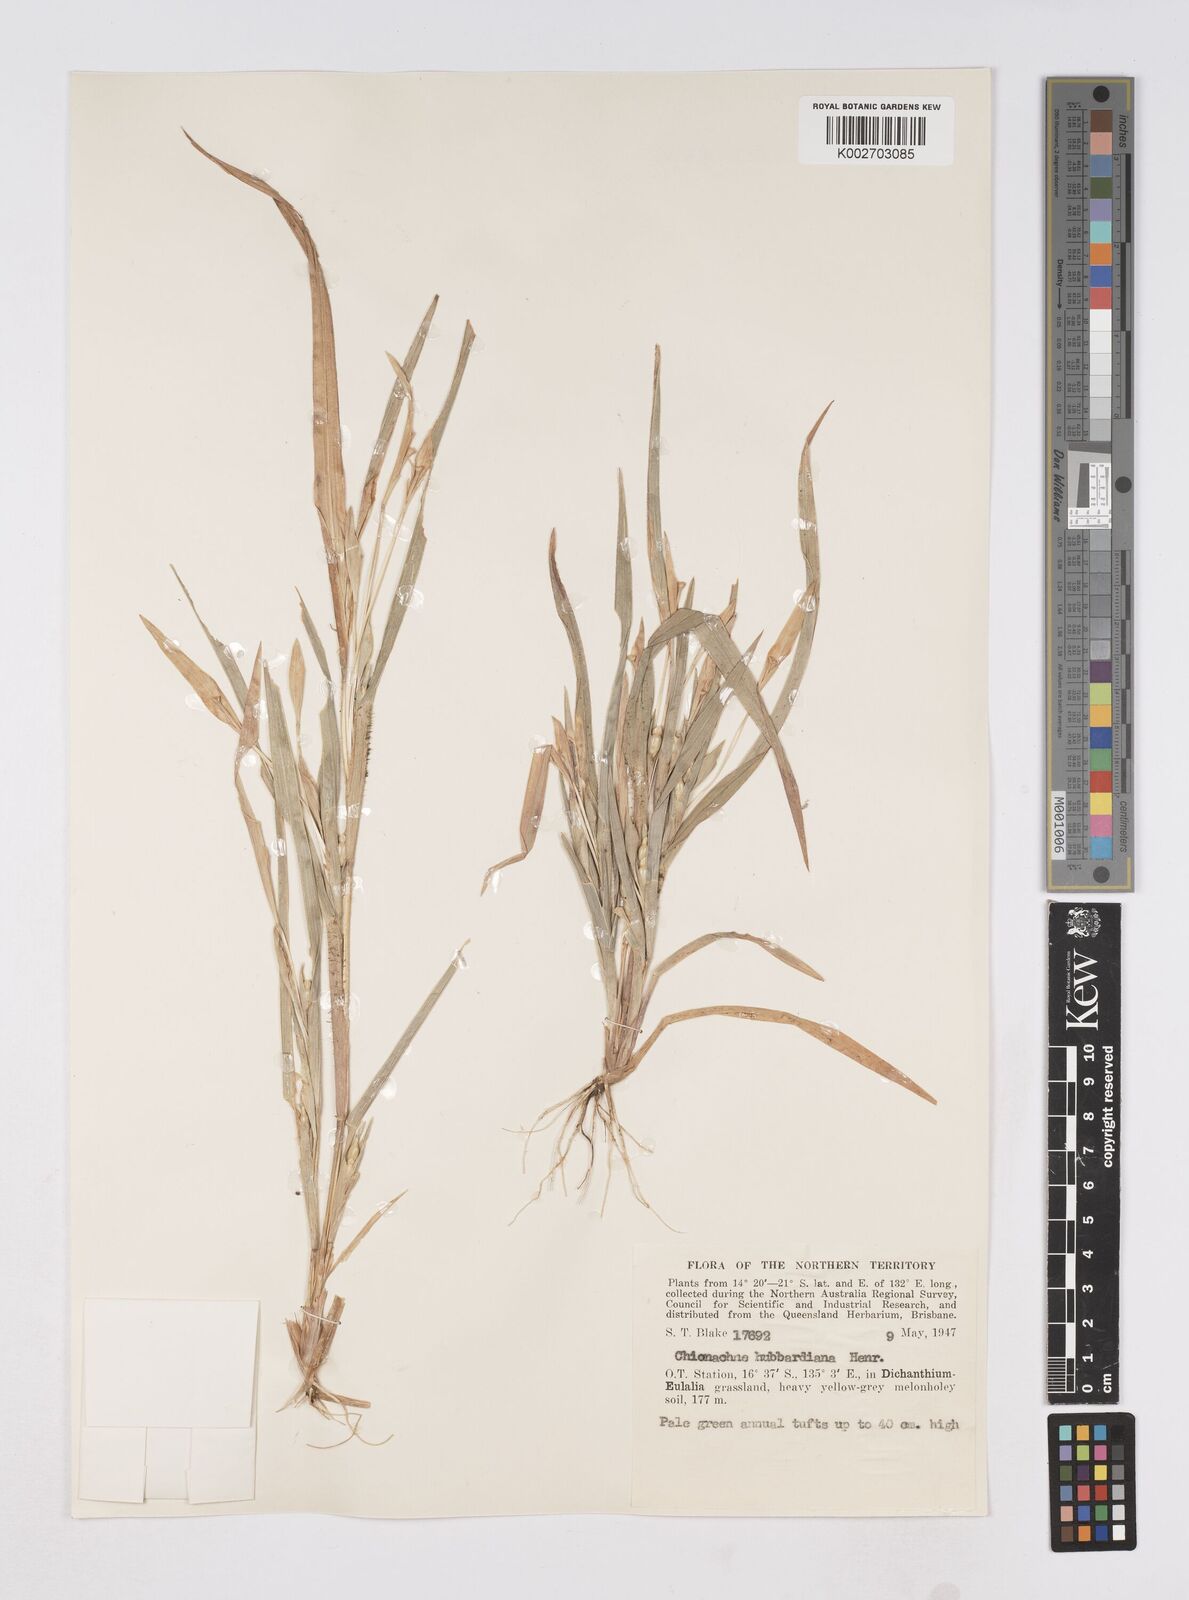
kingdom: Plantae
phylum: Tracheophyta
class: Liliopsida
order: Poales
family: Poaceae
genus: Polytoca
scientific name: Polytoca hubbardiana
